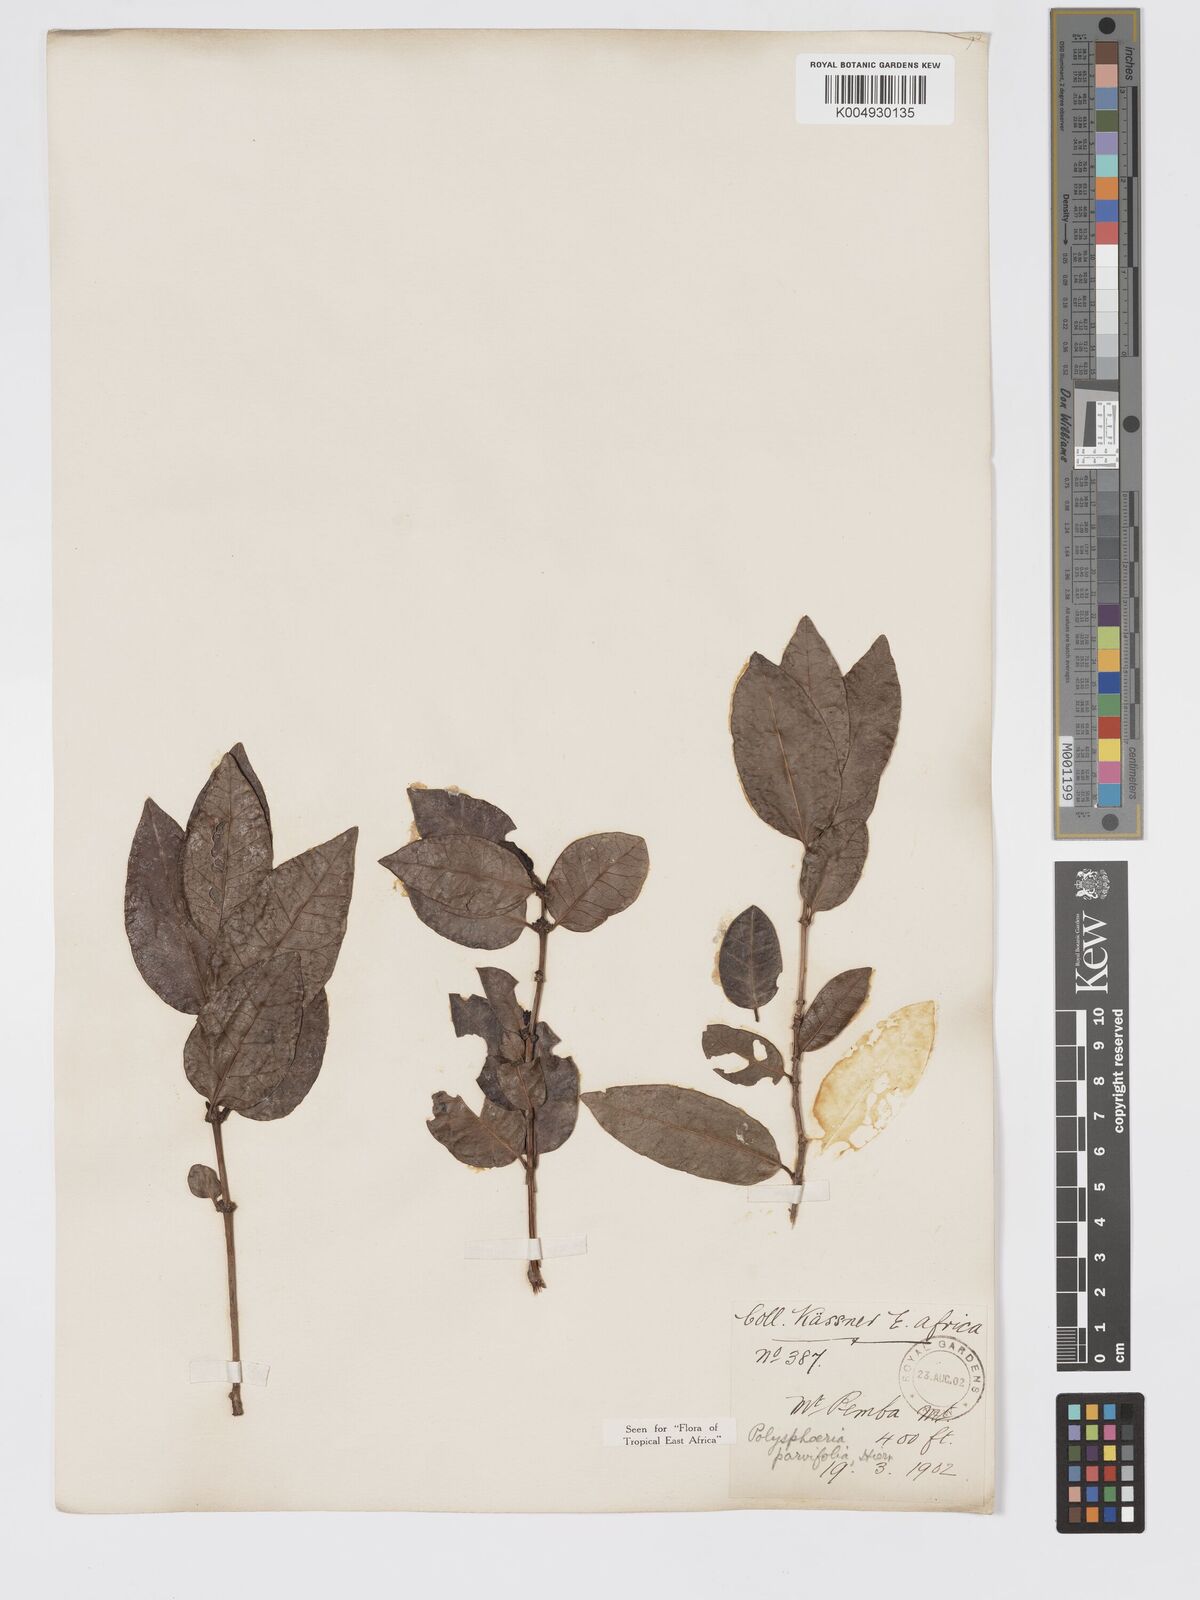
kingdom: Plantae
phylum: Tracheophyta
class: Magnoliopsida
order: Gentianales
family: Rubiaceae
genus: Polysphaeria
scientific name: Polysphaeria parvifolia
